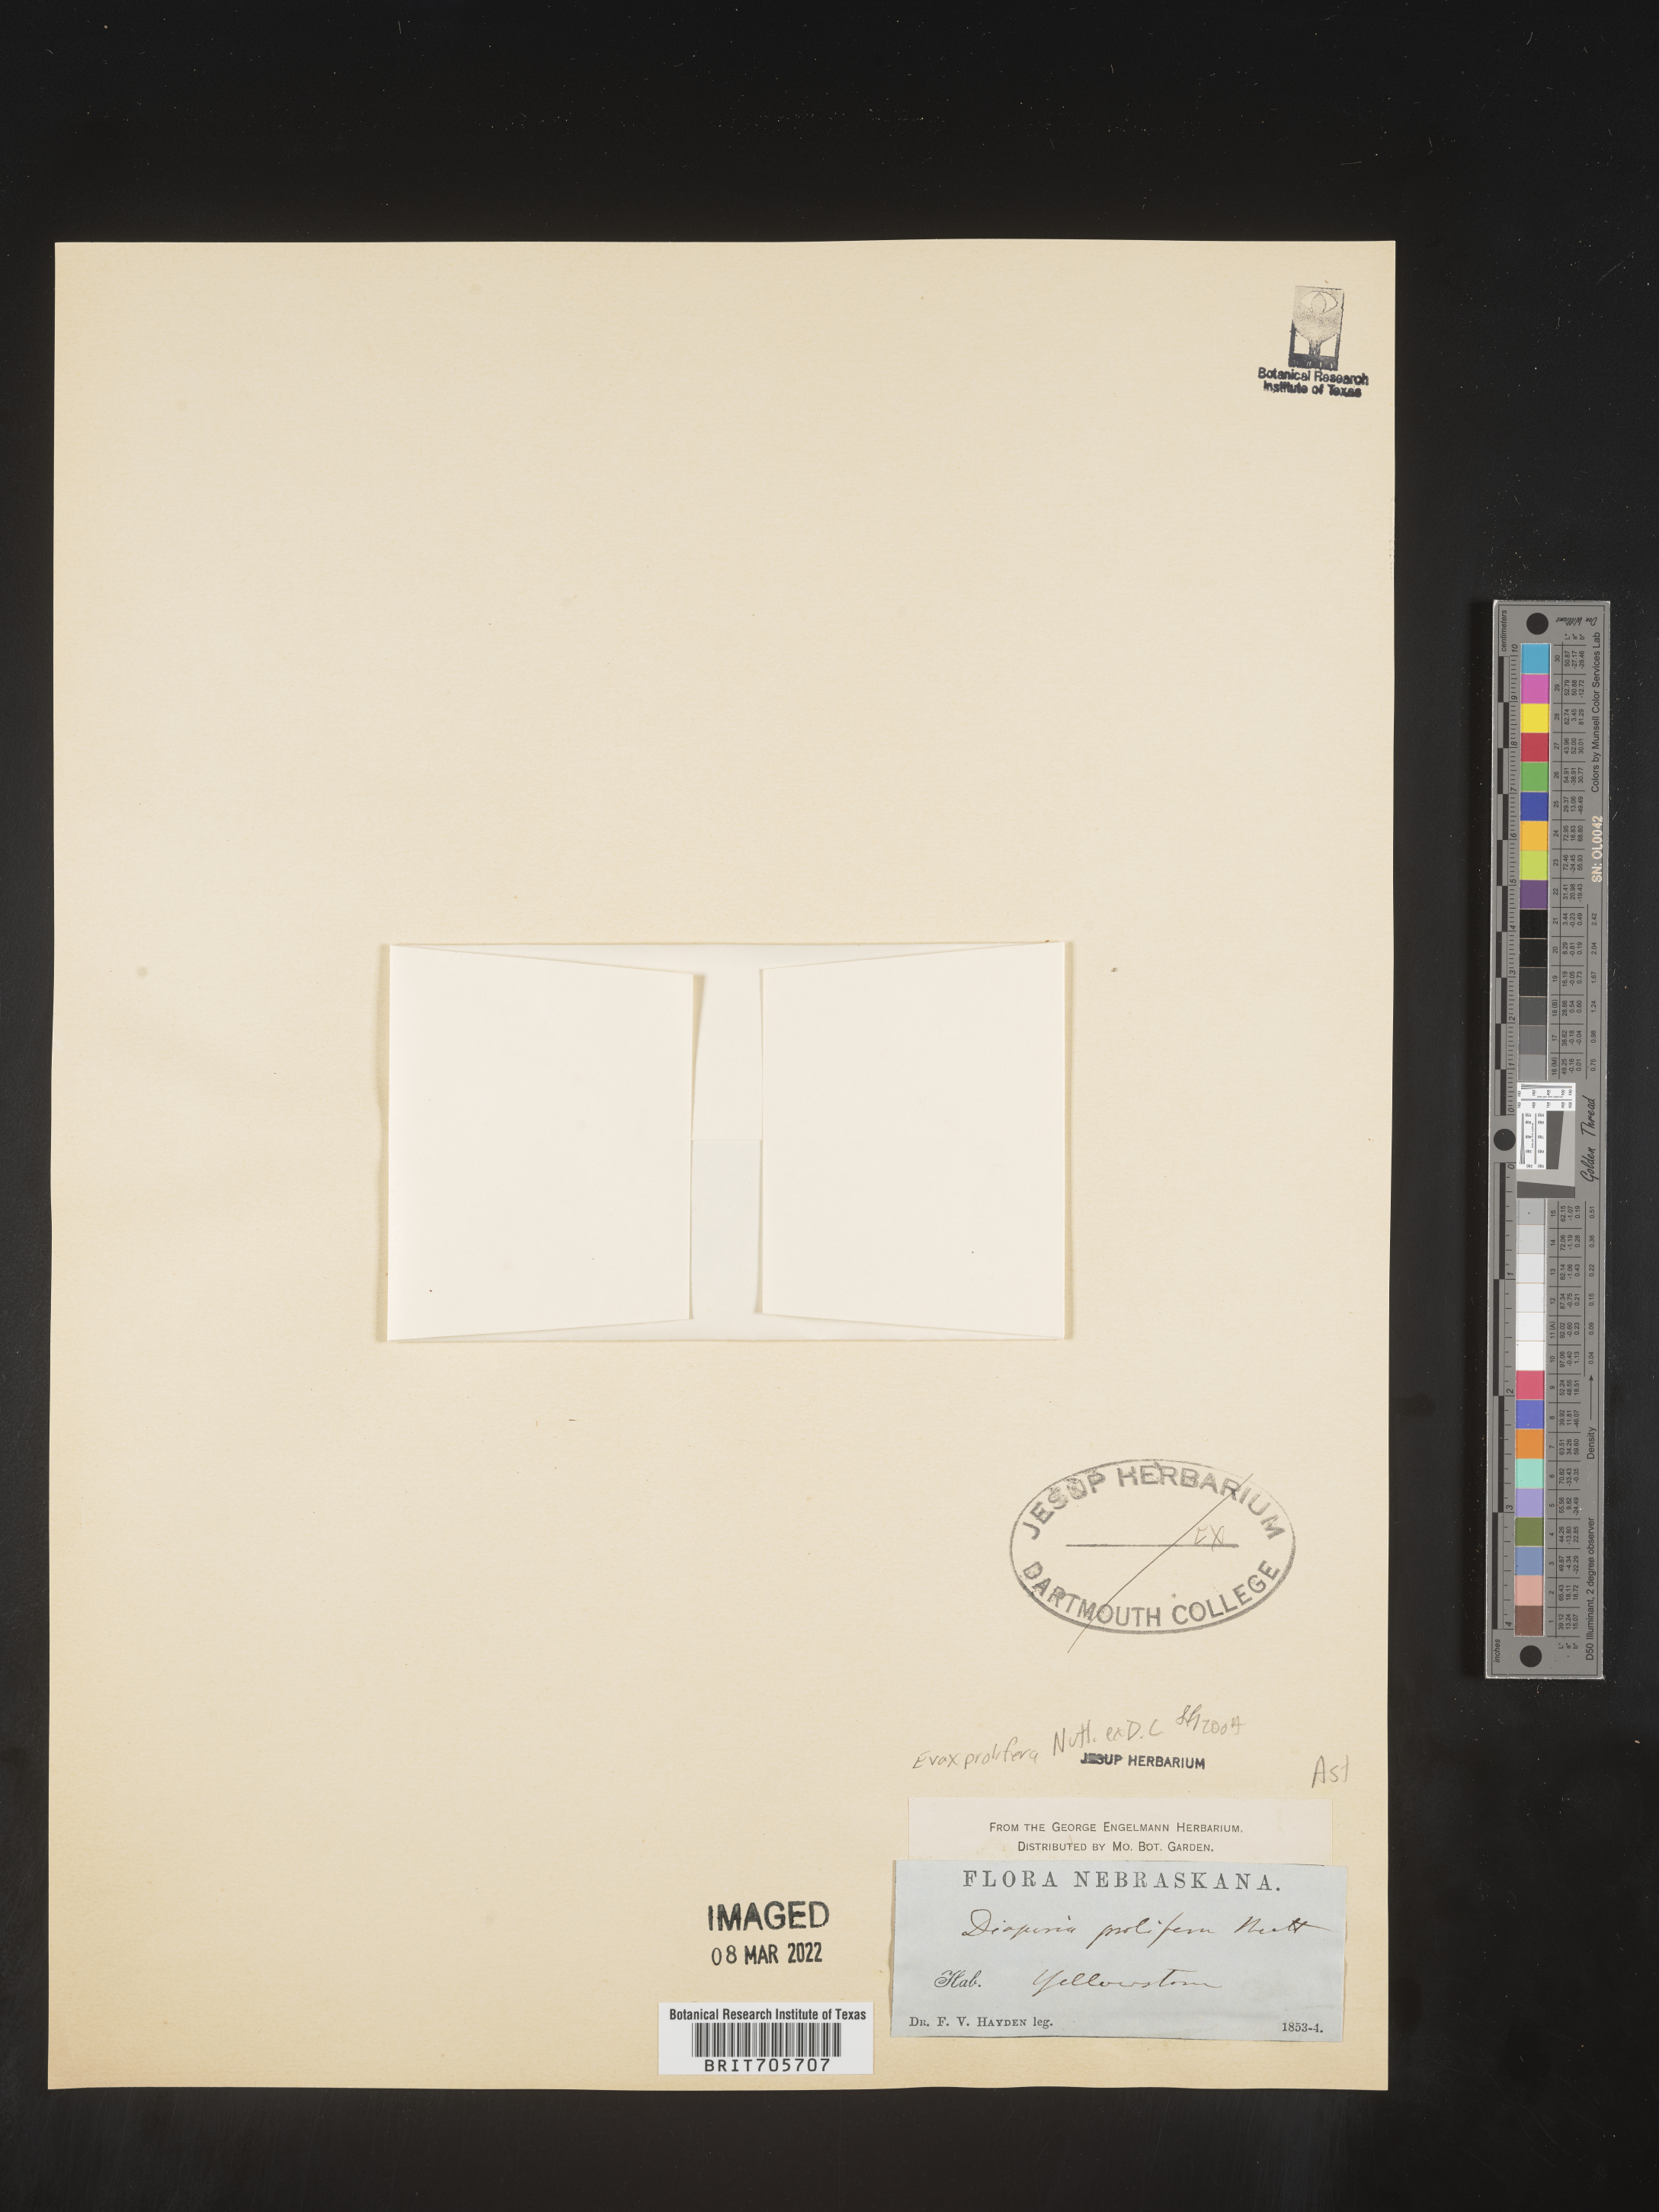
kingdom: Plantae
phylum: Tracheophyta
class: Magnoliopsida
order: Asterales
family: Asteraceae
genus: Diaperia
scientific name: Diaperia prolifera
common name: Big-head rabbit-tobacco
